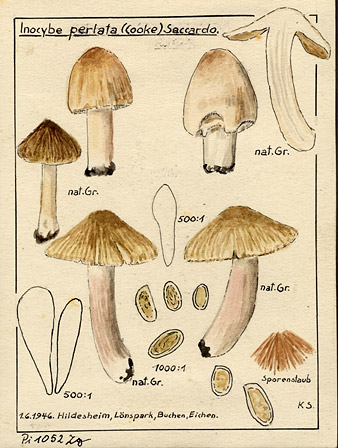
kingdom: Fungi
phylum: Basidiomycota
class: Agaricomycetes
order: Agaricales
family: Inocybaceae
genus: Inosperma
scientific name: Inosperma reisneri
